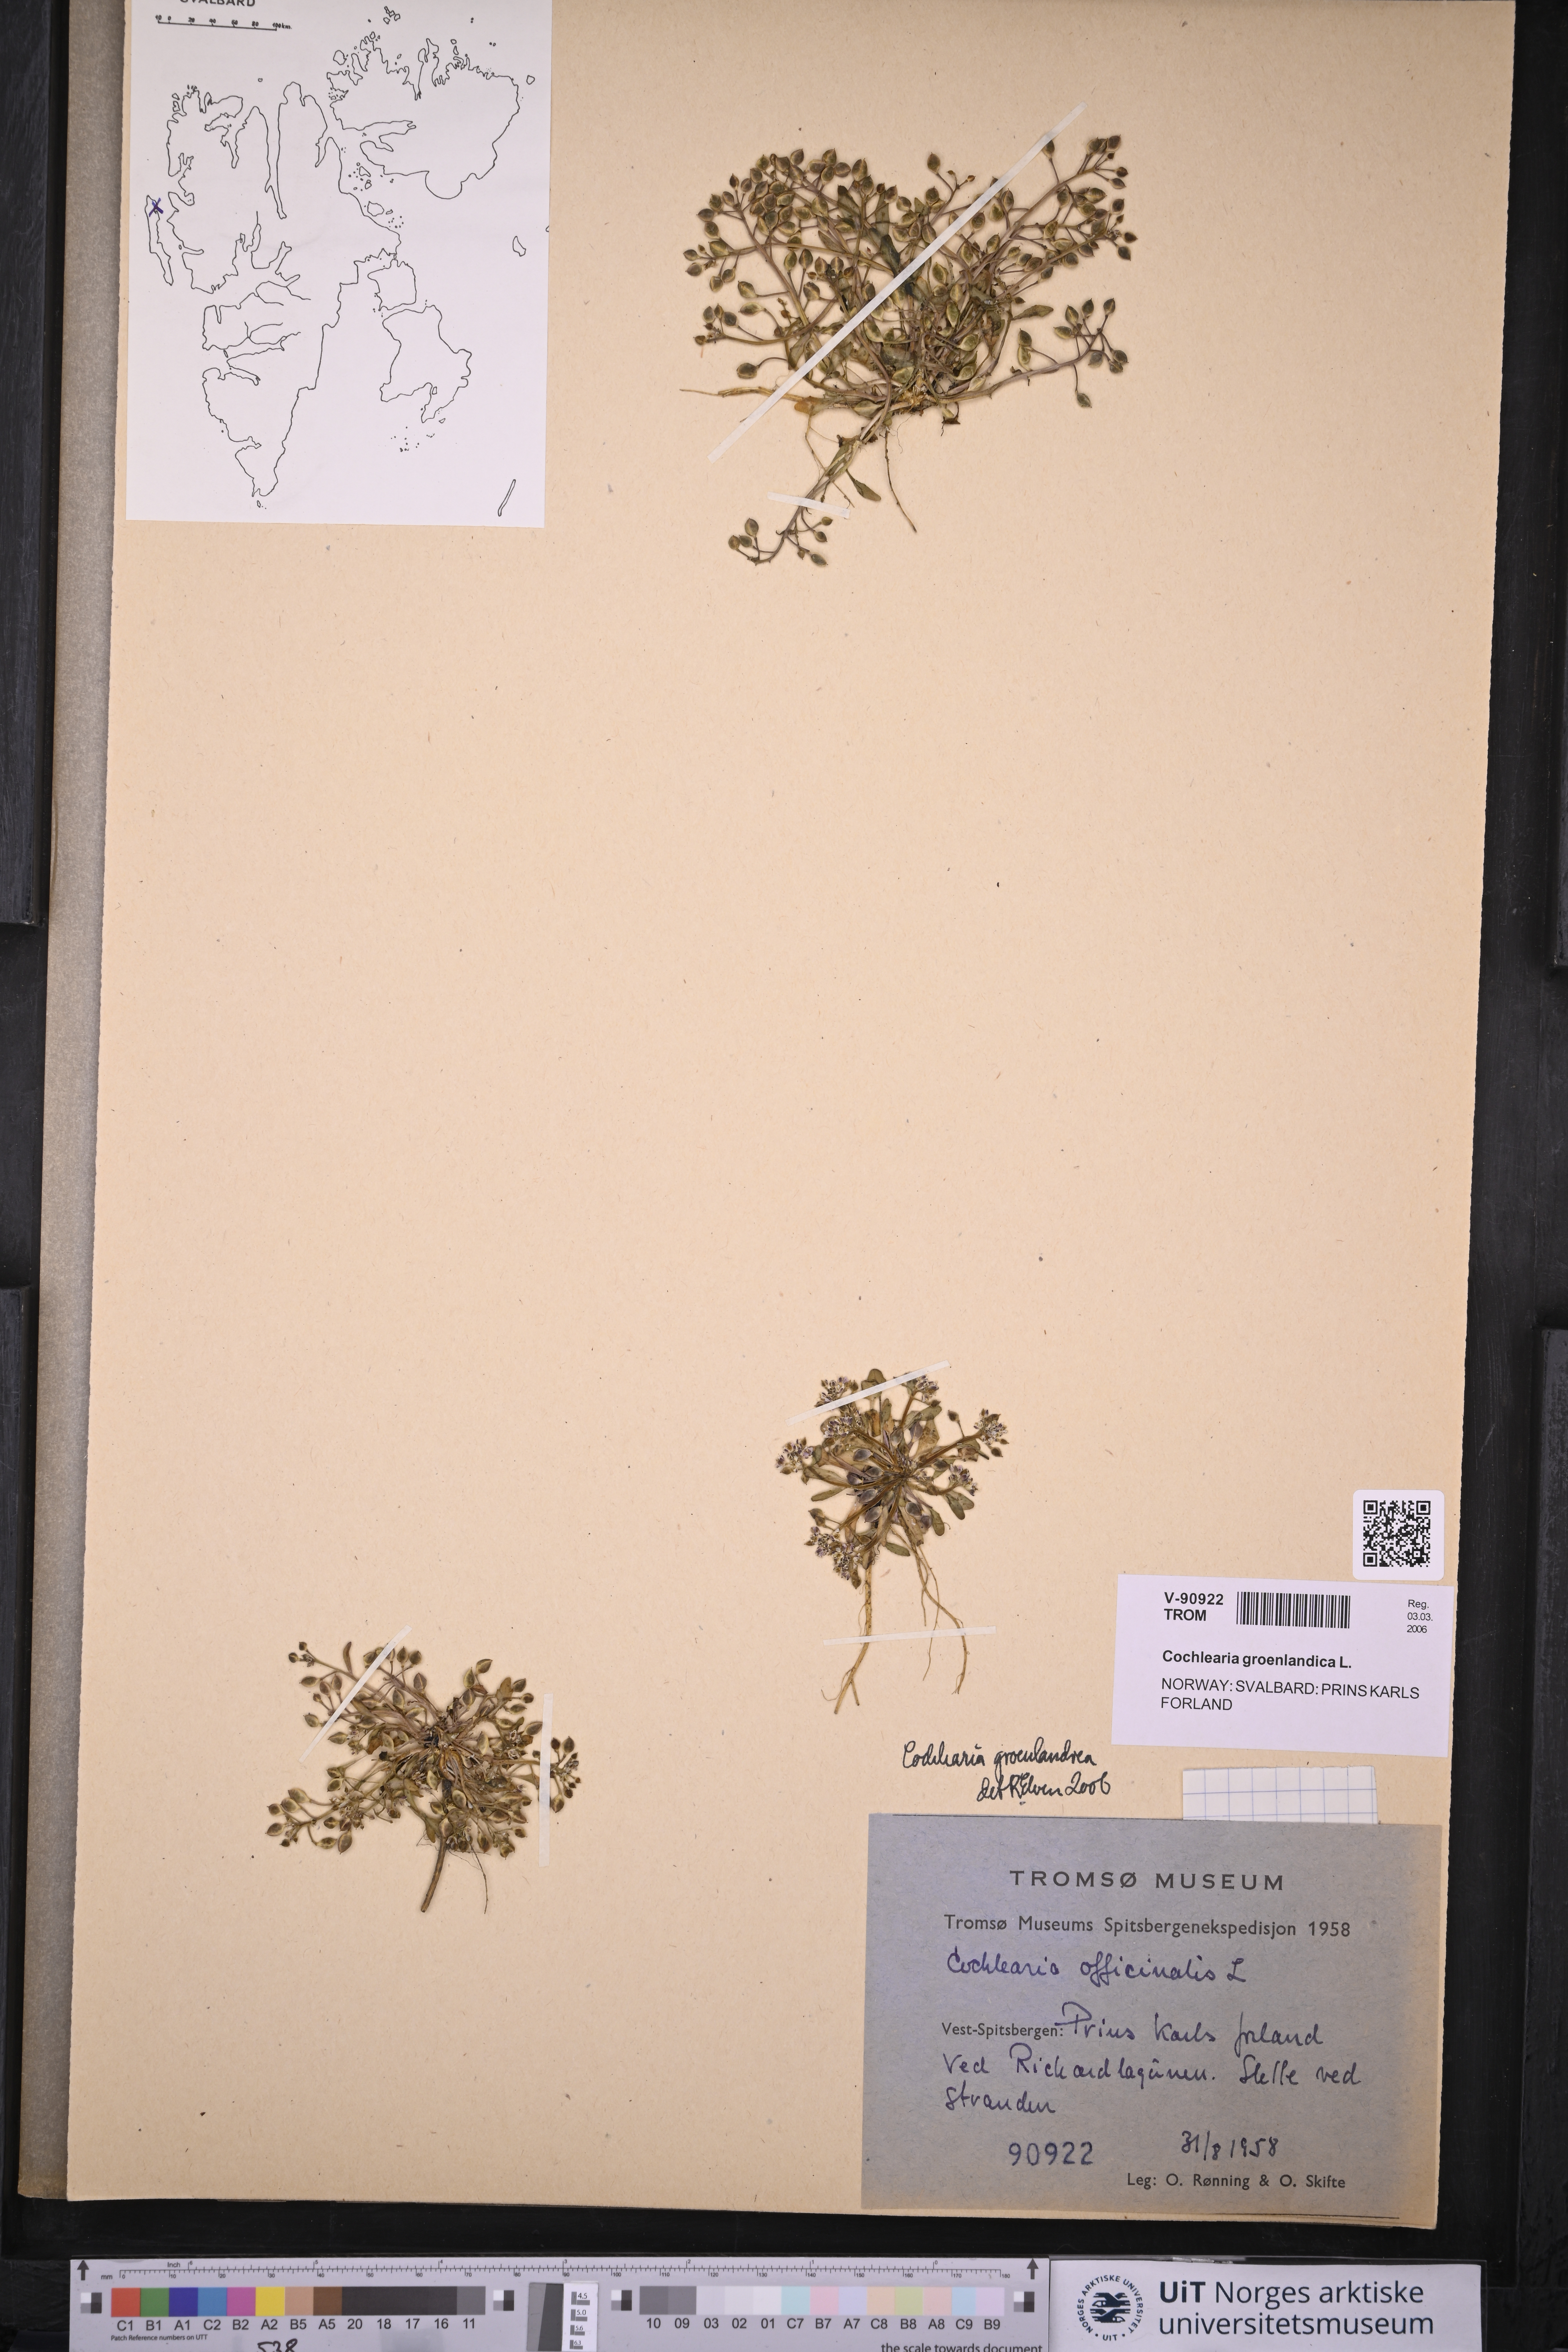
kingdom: Plantae
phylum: Tracheophyta
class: Magnoliopsida
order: Brassicales
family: Brassicaceae
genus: Cochlearia
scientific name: Cochlearia groenlandica
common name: Danish scurvygrass
